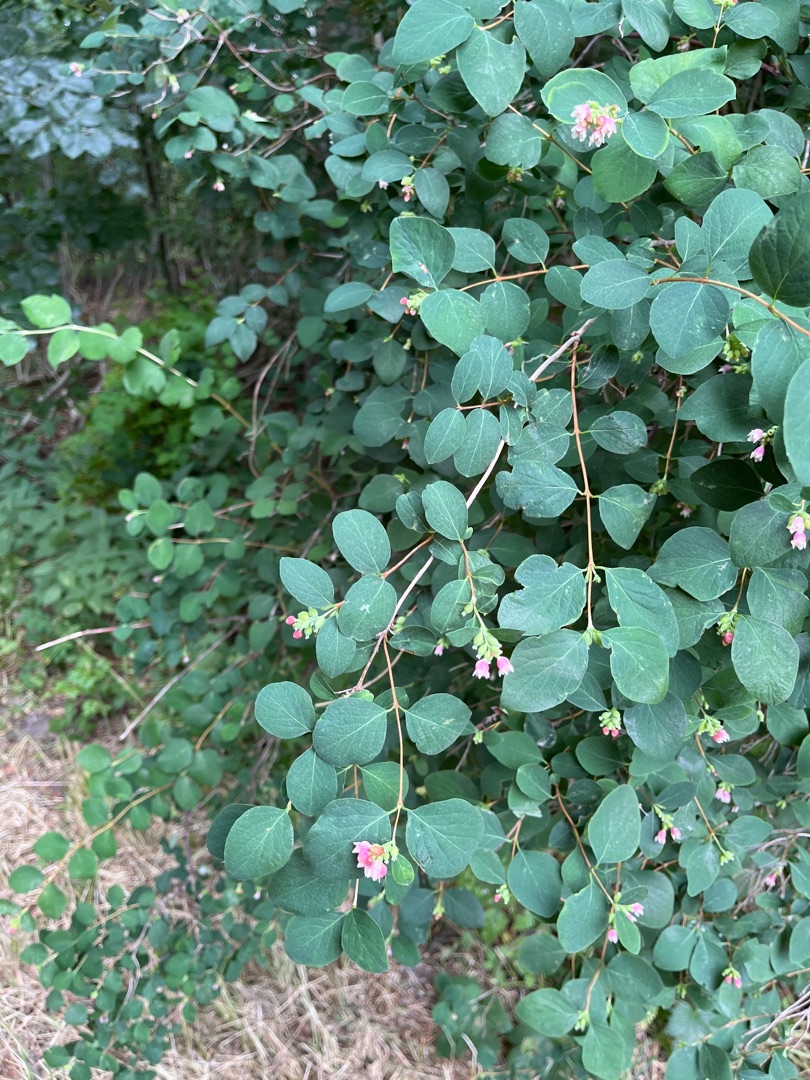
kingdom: Plantae
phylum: Tracheophyta
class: Magnoliopsida
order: Dipsacales
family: Caprifoliaceae
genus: Symphoricarpos
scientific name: Symphoricarpos albus
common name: Almindelig snebær
